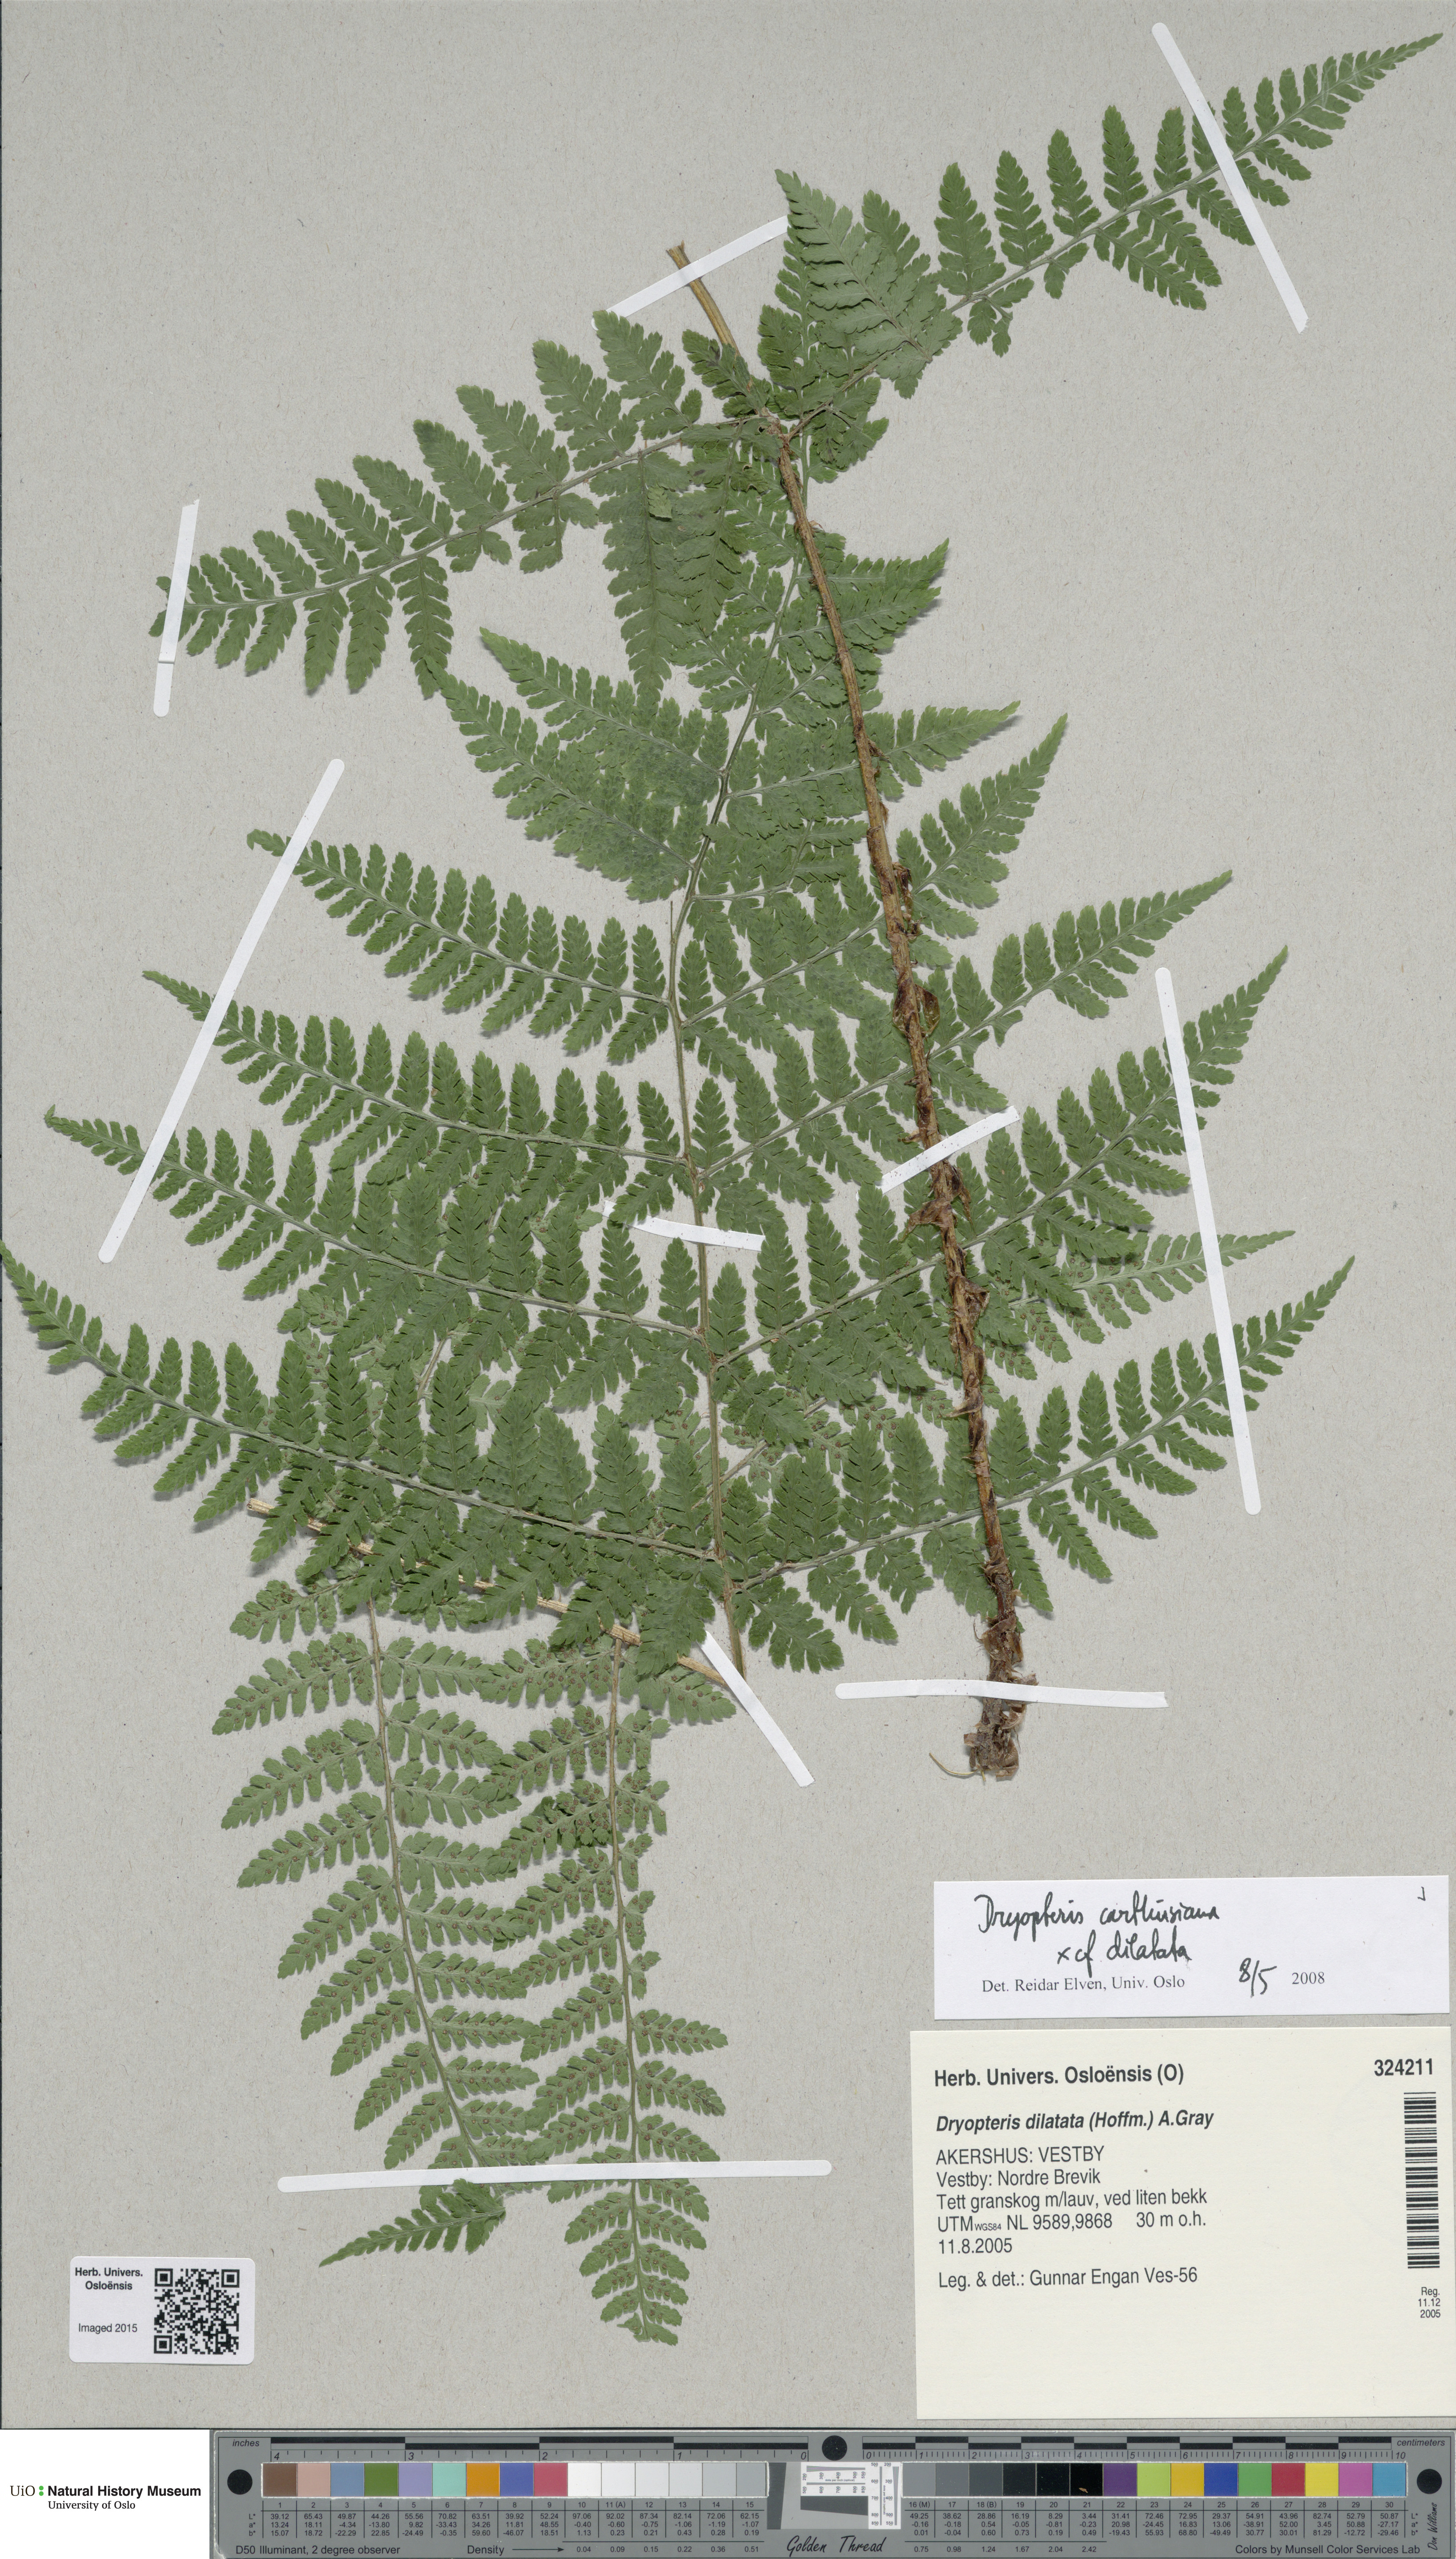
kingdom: Plantae
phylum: Tracheophyta
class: Polypodiopsida
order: Polypodiales
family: Dryopteridaceae
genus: Dryopteris
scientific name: Dryopteris
